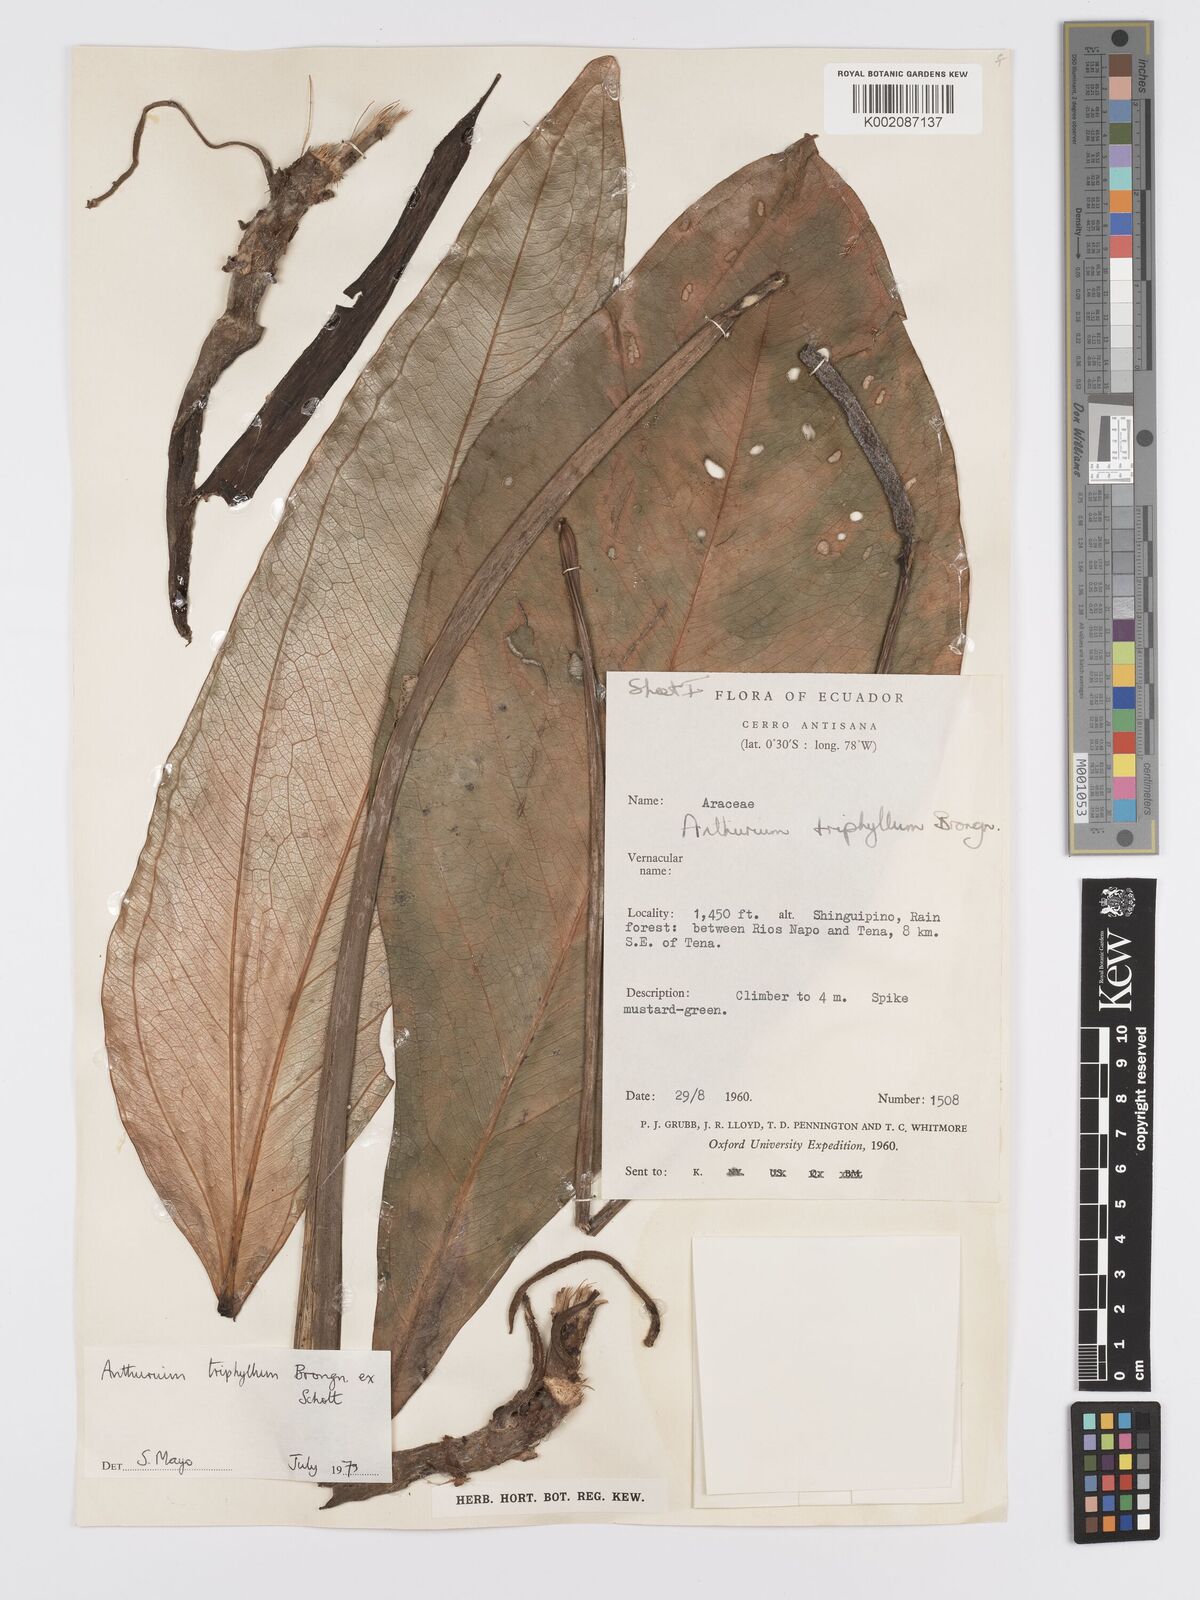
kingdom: Plantae
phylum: Tracheophyta
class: Liliopsida
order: Alismatales
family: Araceae
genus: Anthurium
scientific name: Anthurium triphyllum
